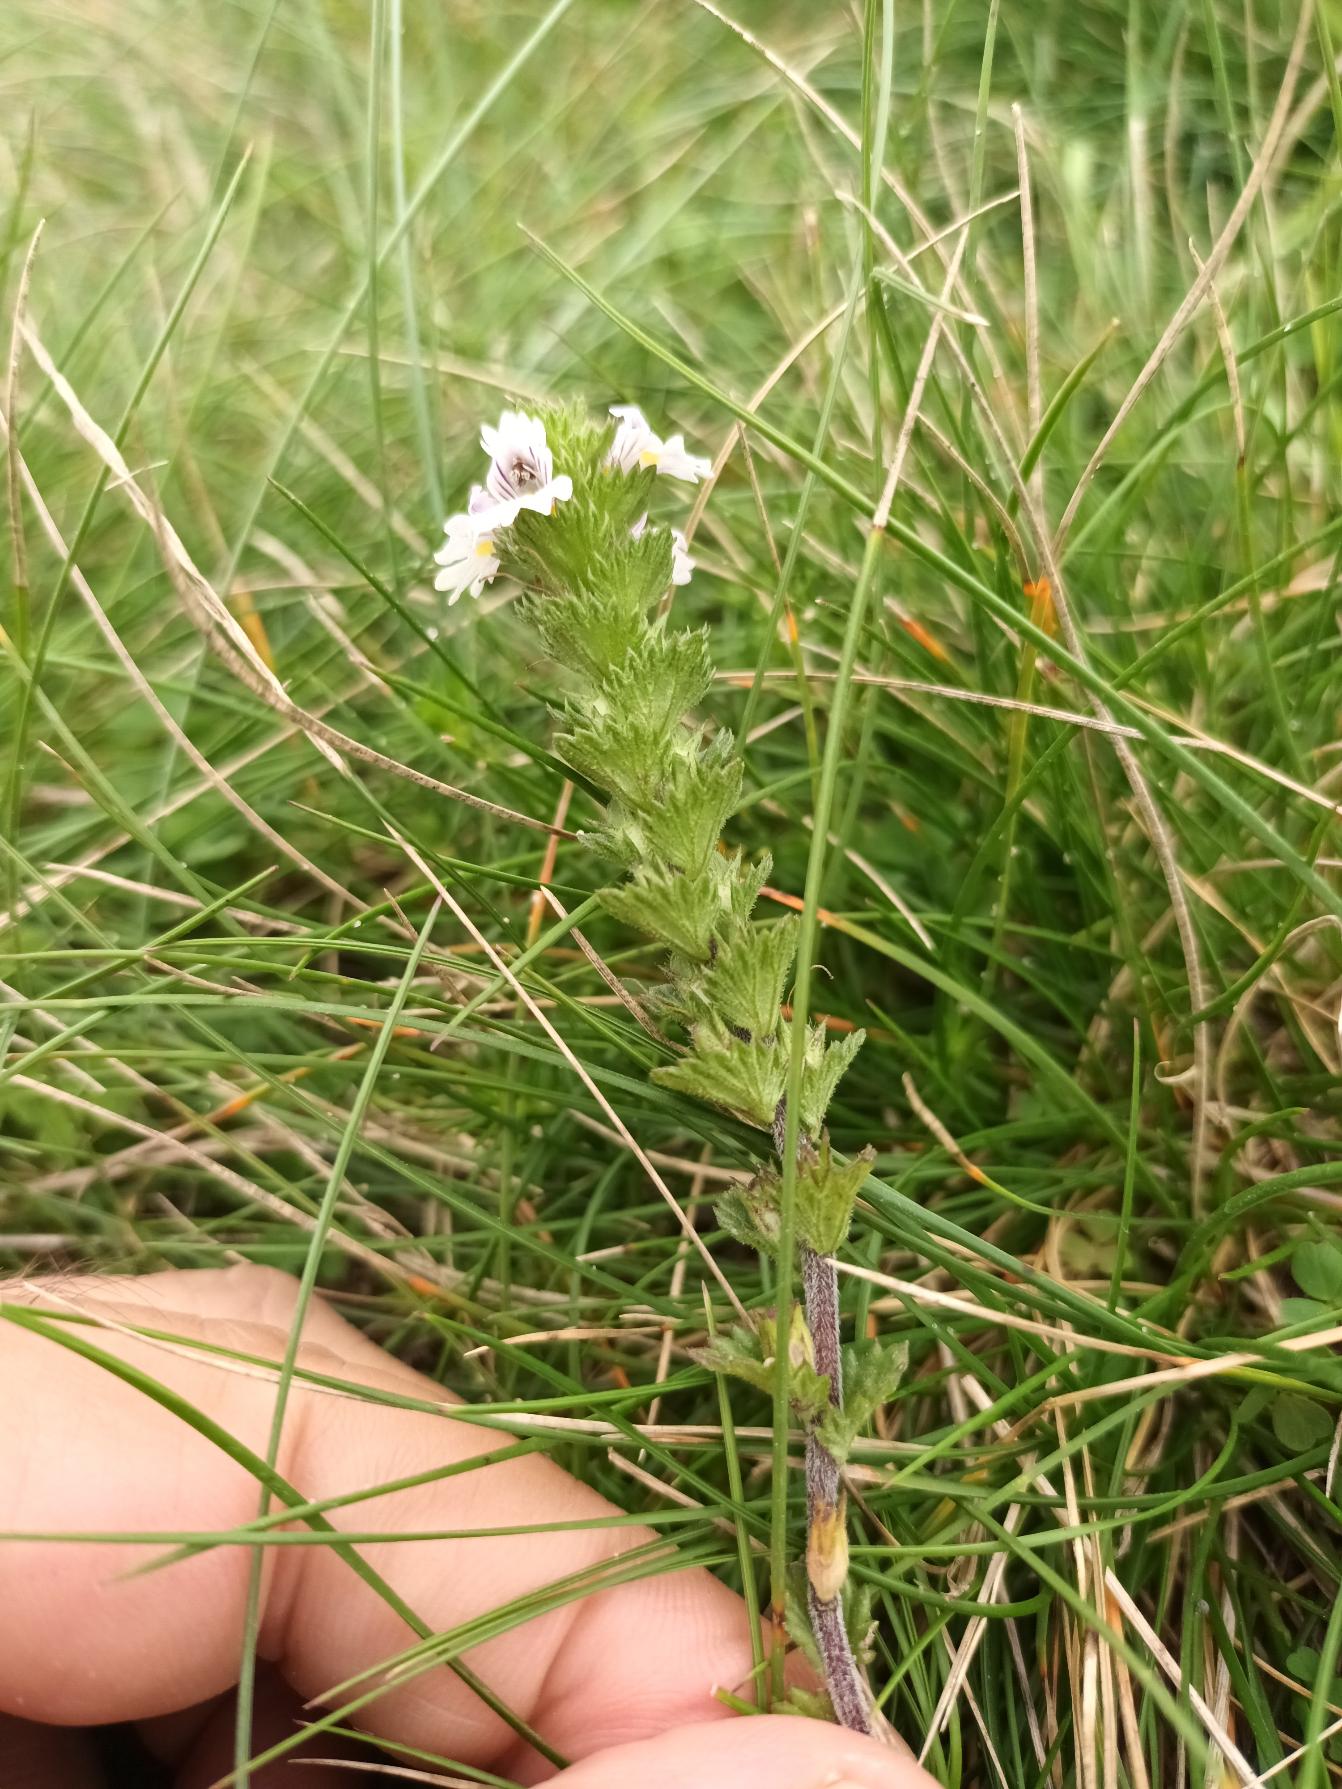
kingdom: Plantae
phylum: Tracheophyta
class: Magnoliopsida
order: Lamiales
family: Orobanchaceae
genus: Euphrasia
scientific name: Euphrasia nemorosa
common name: Kort øjentrøst
